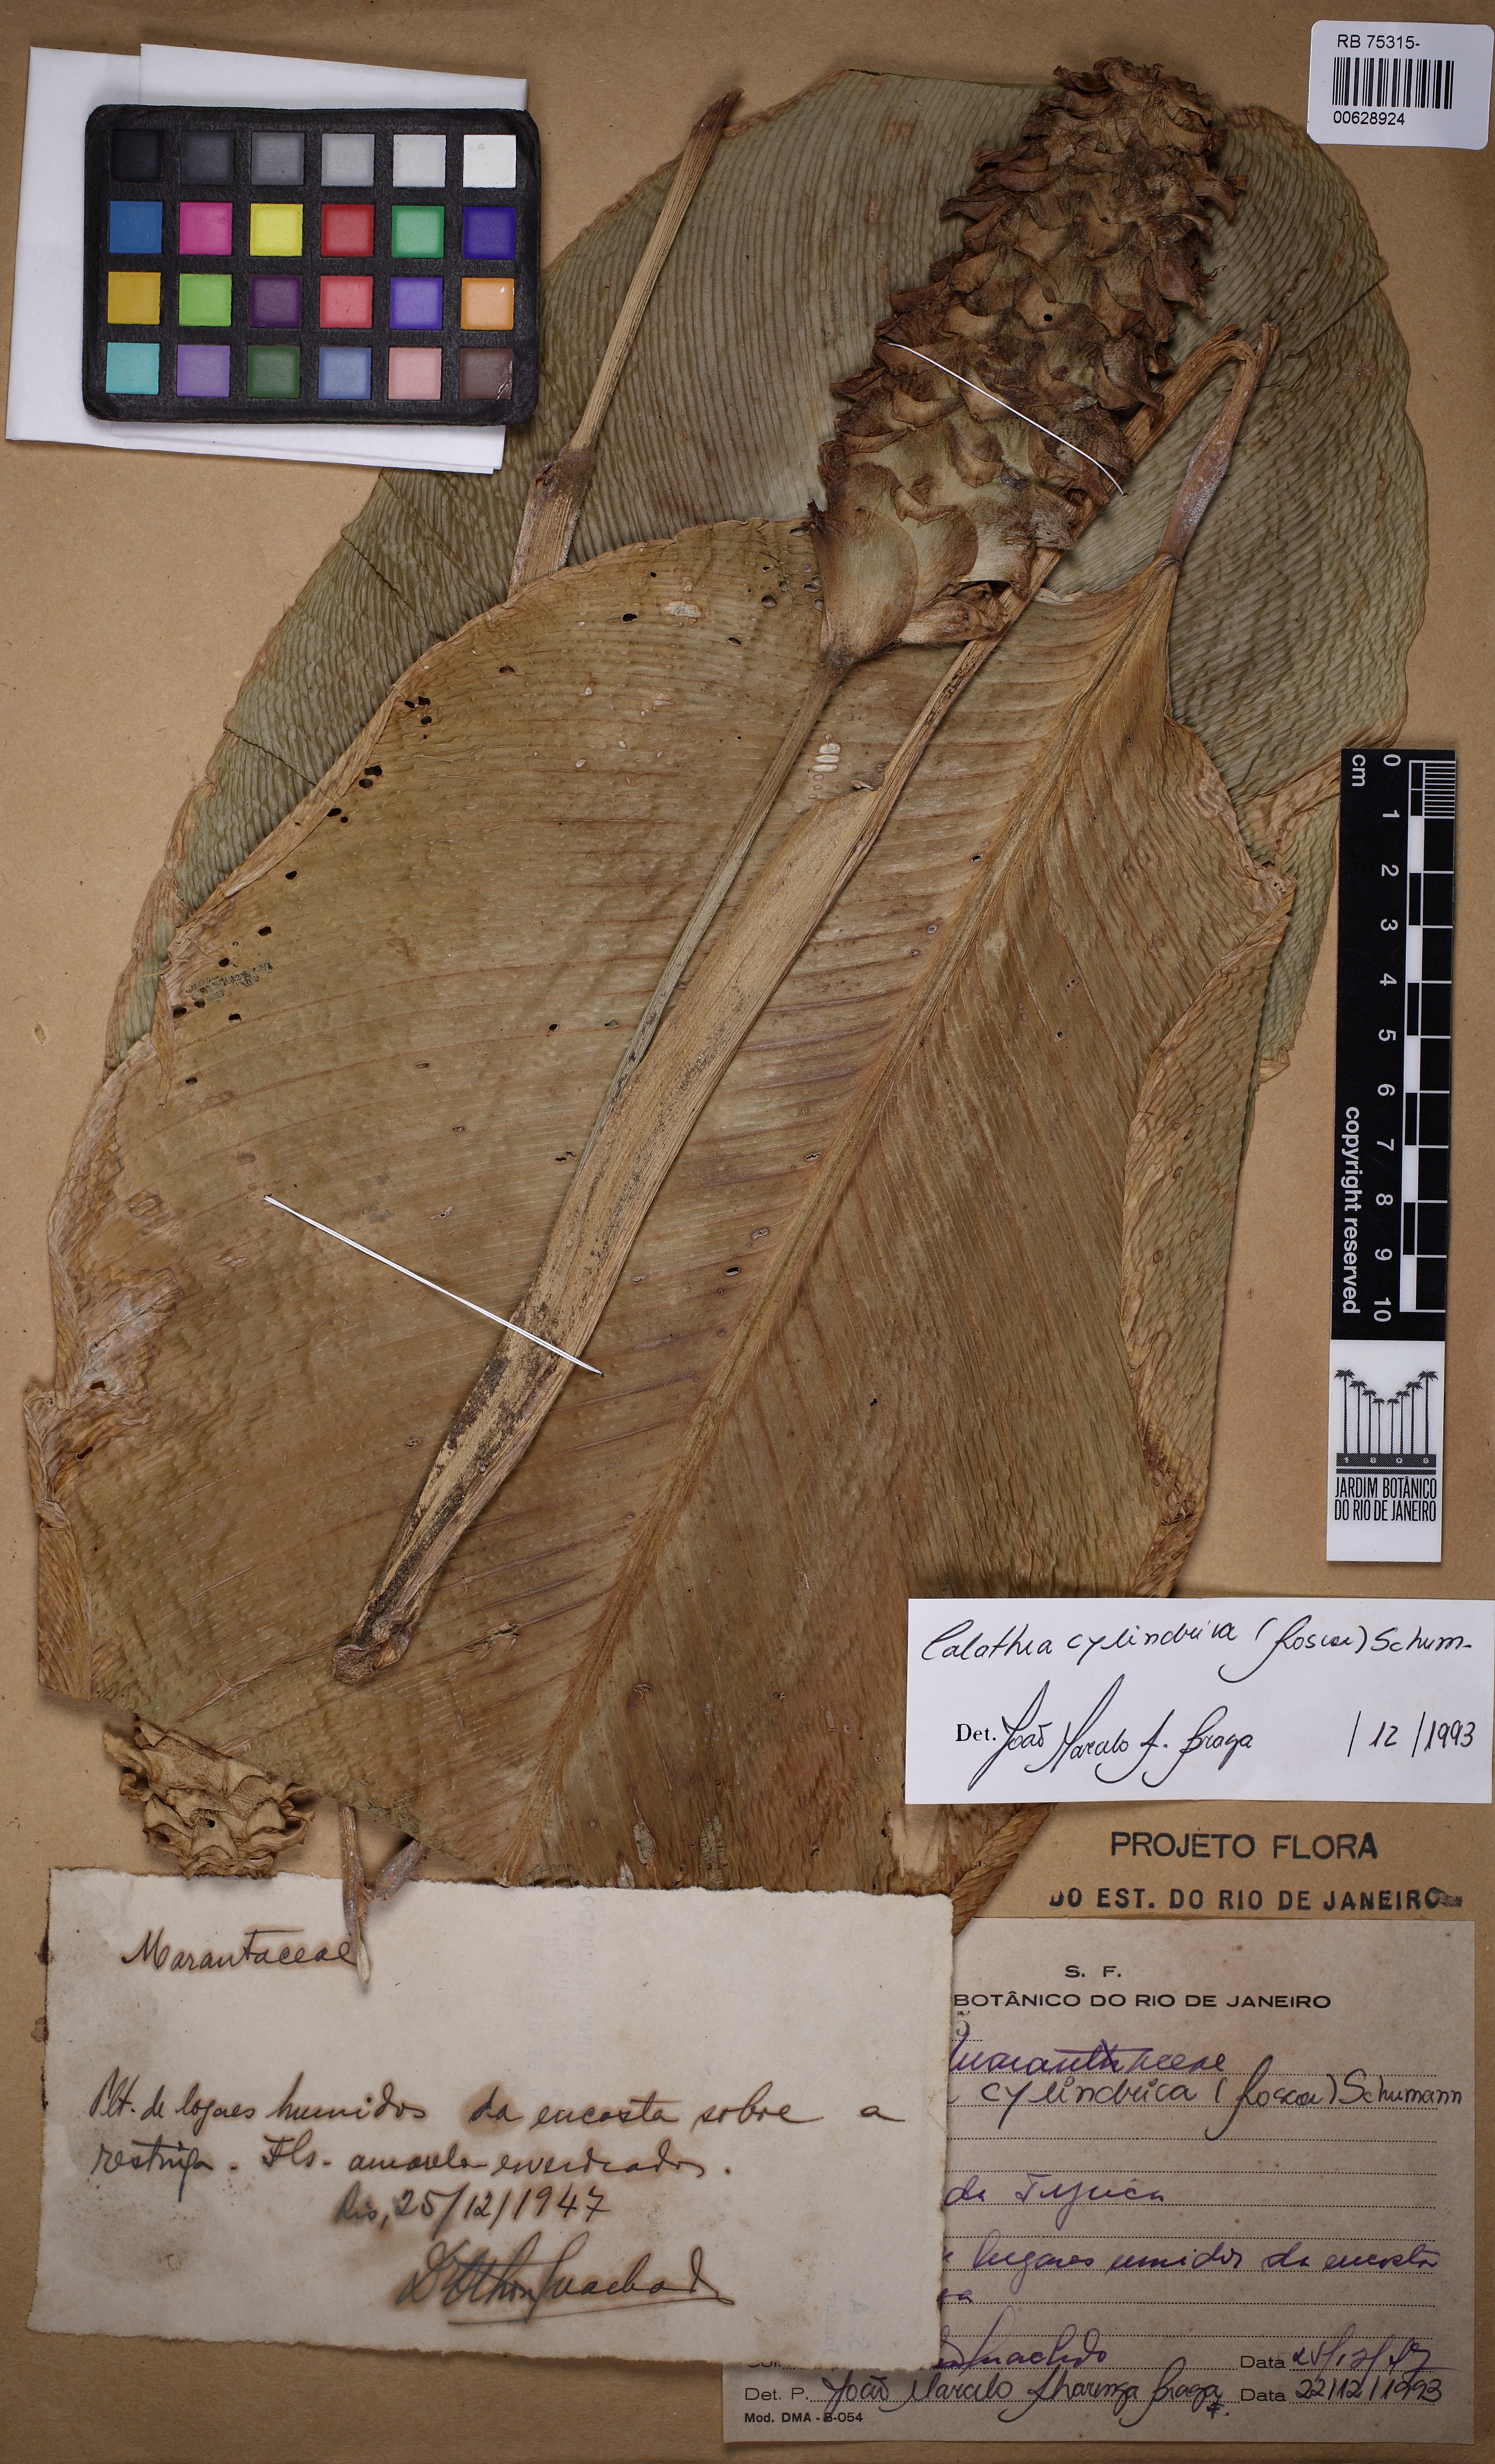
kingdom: Plantae
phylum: Tracheophyta
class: Liliopsida
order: Zingiberales
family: Marantaceae
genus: Goeppertia
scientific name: Goeppertia cylindrica
